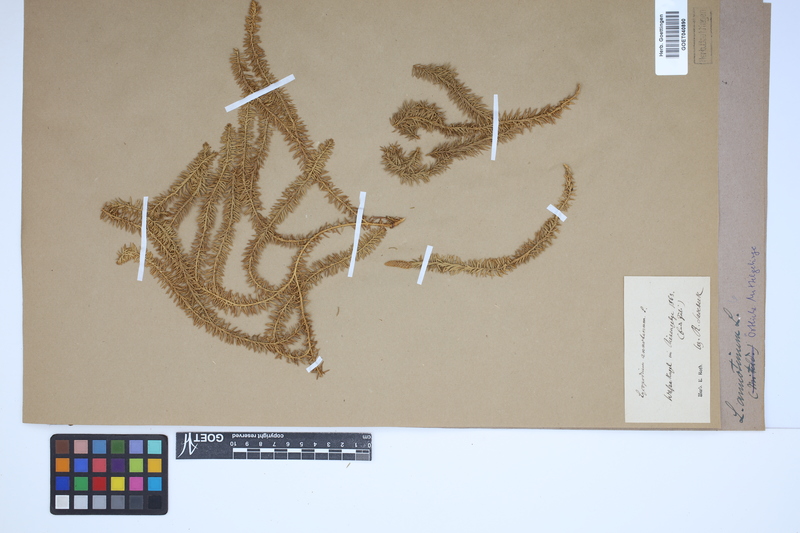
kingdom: Plantae
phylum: Tracheophyta
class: Lycopodiopsida
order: Lycopodiales
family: Lycopodiaceae
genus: Spinulum
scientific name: Spinulum annotinum
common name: Interrupted club-moss
